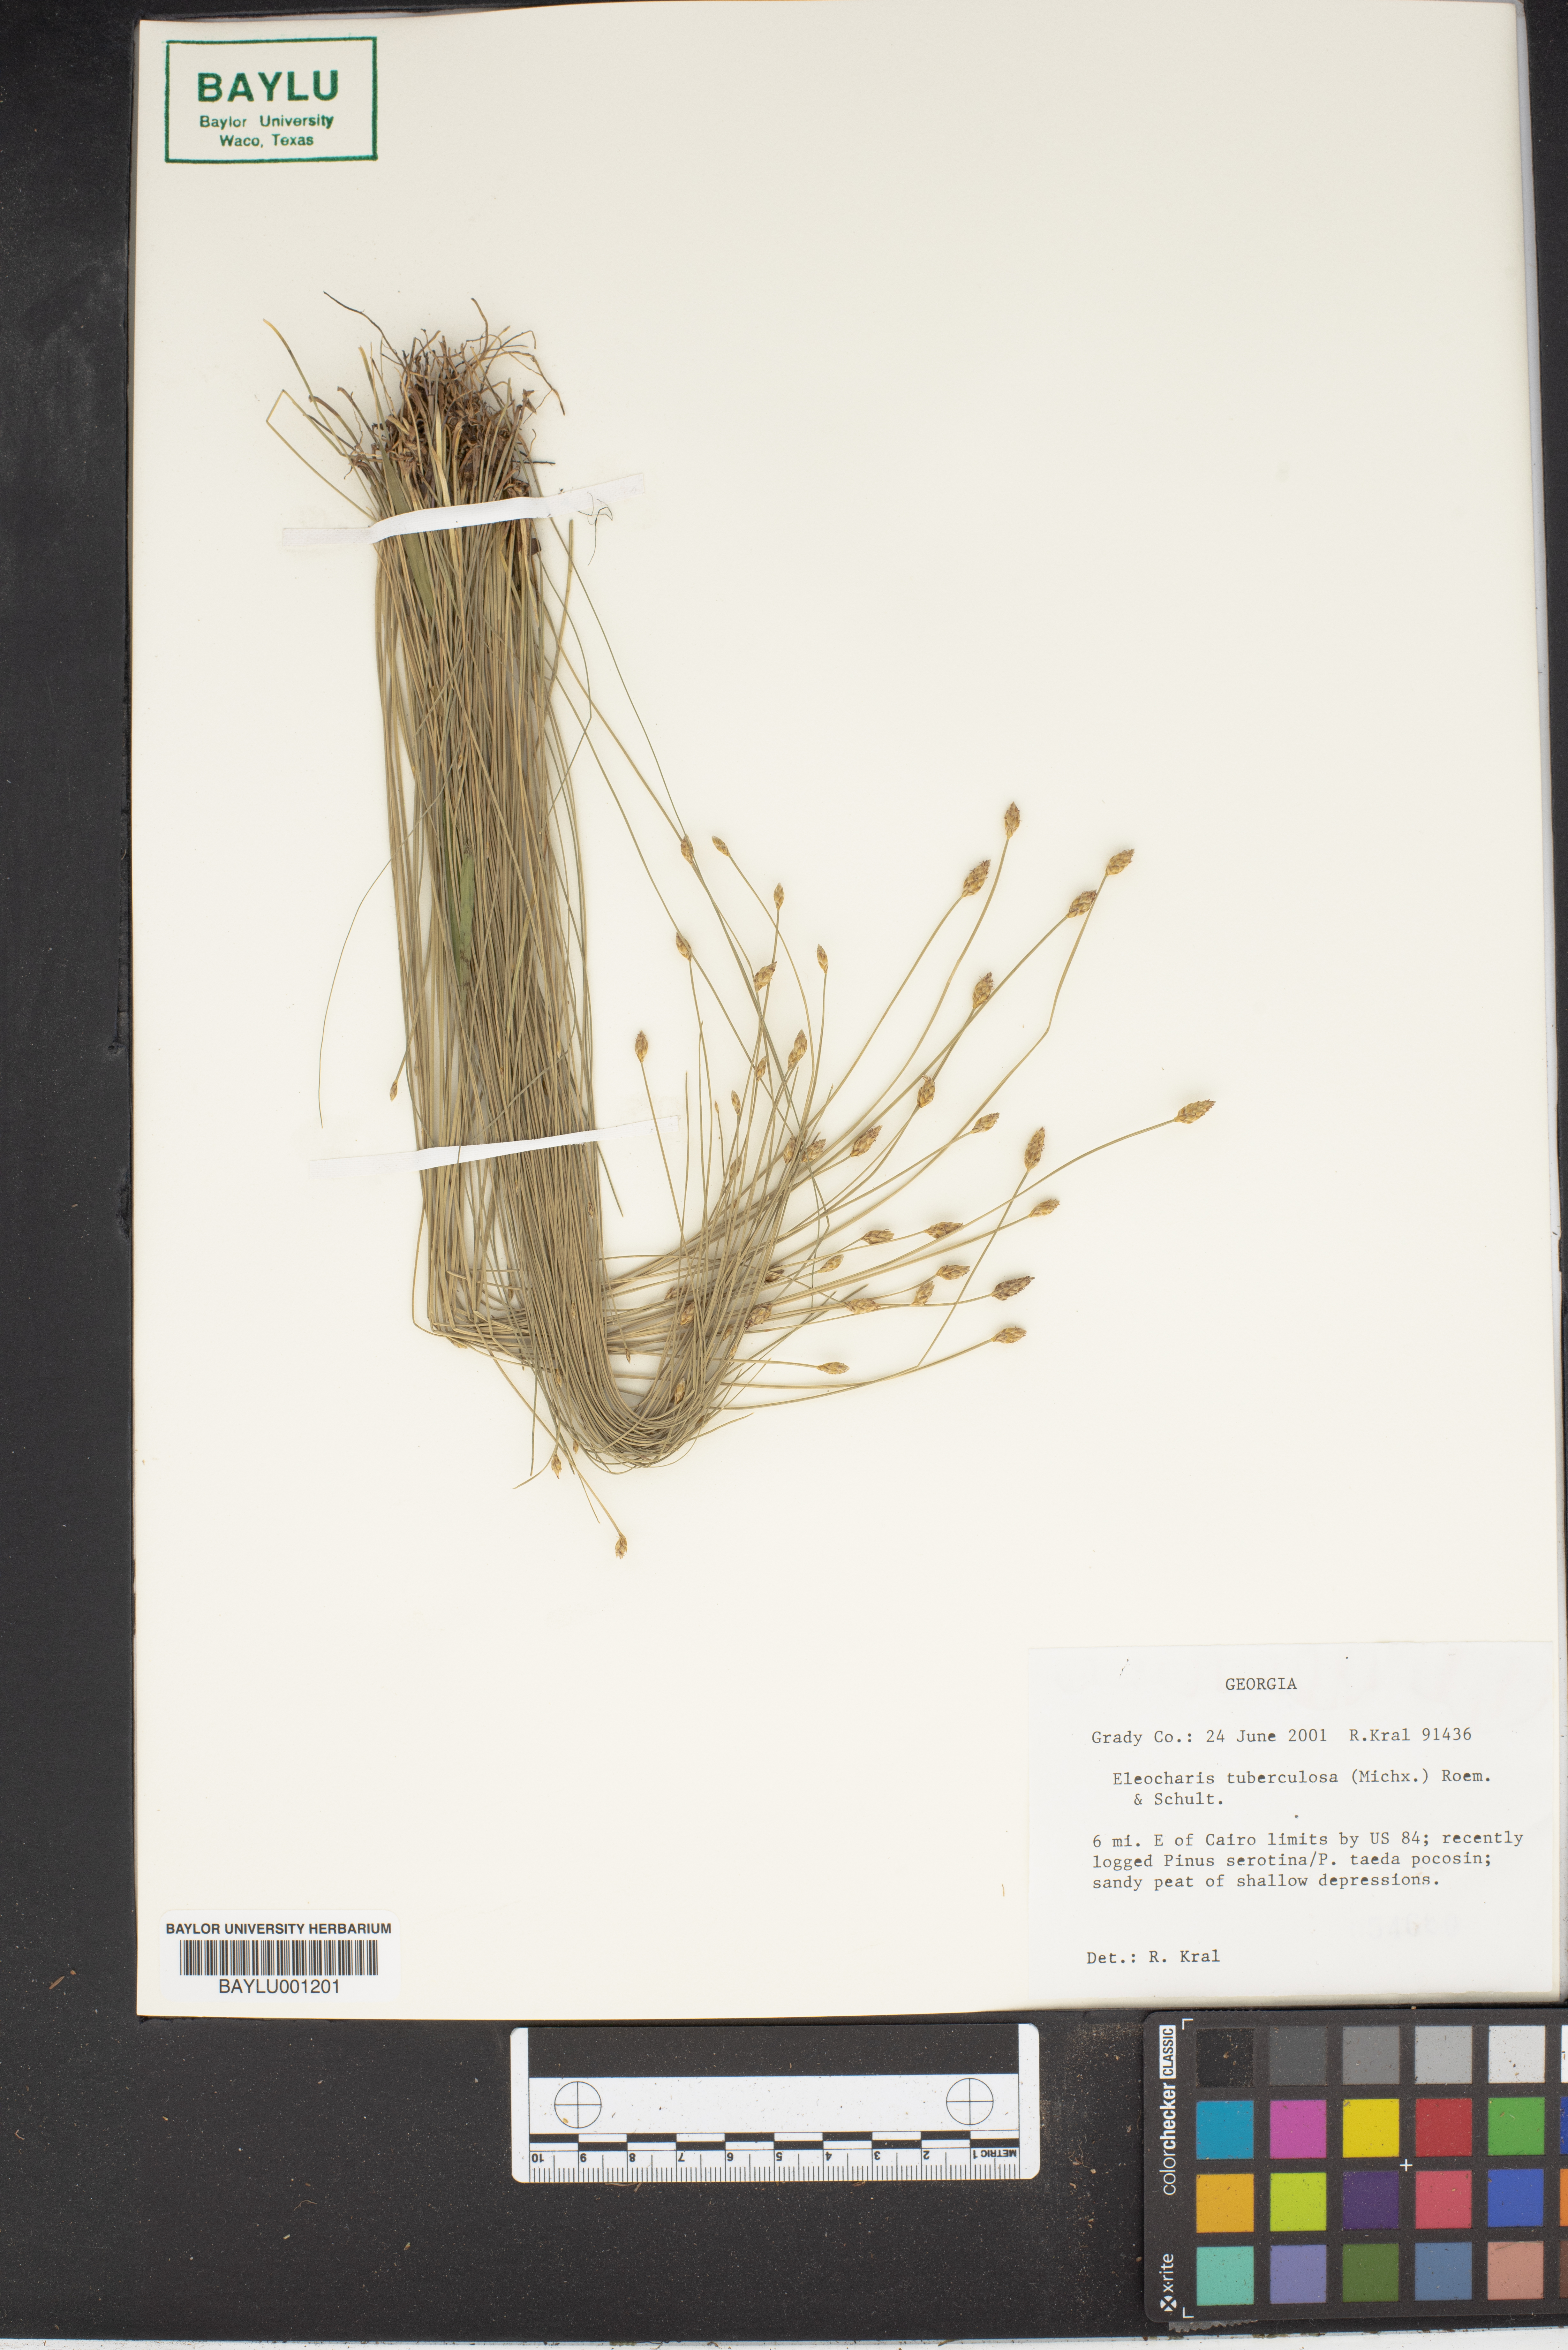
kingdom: Plantae
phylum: Tracheophyta
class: Liliopsida
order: Poales
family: Cyperaceae
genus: Eleocharis
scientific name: Eleocharis tuberculosa
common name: Cone-cup spikerush
